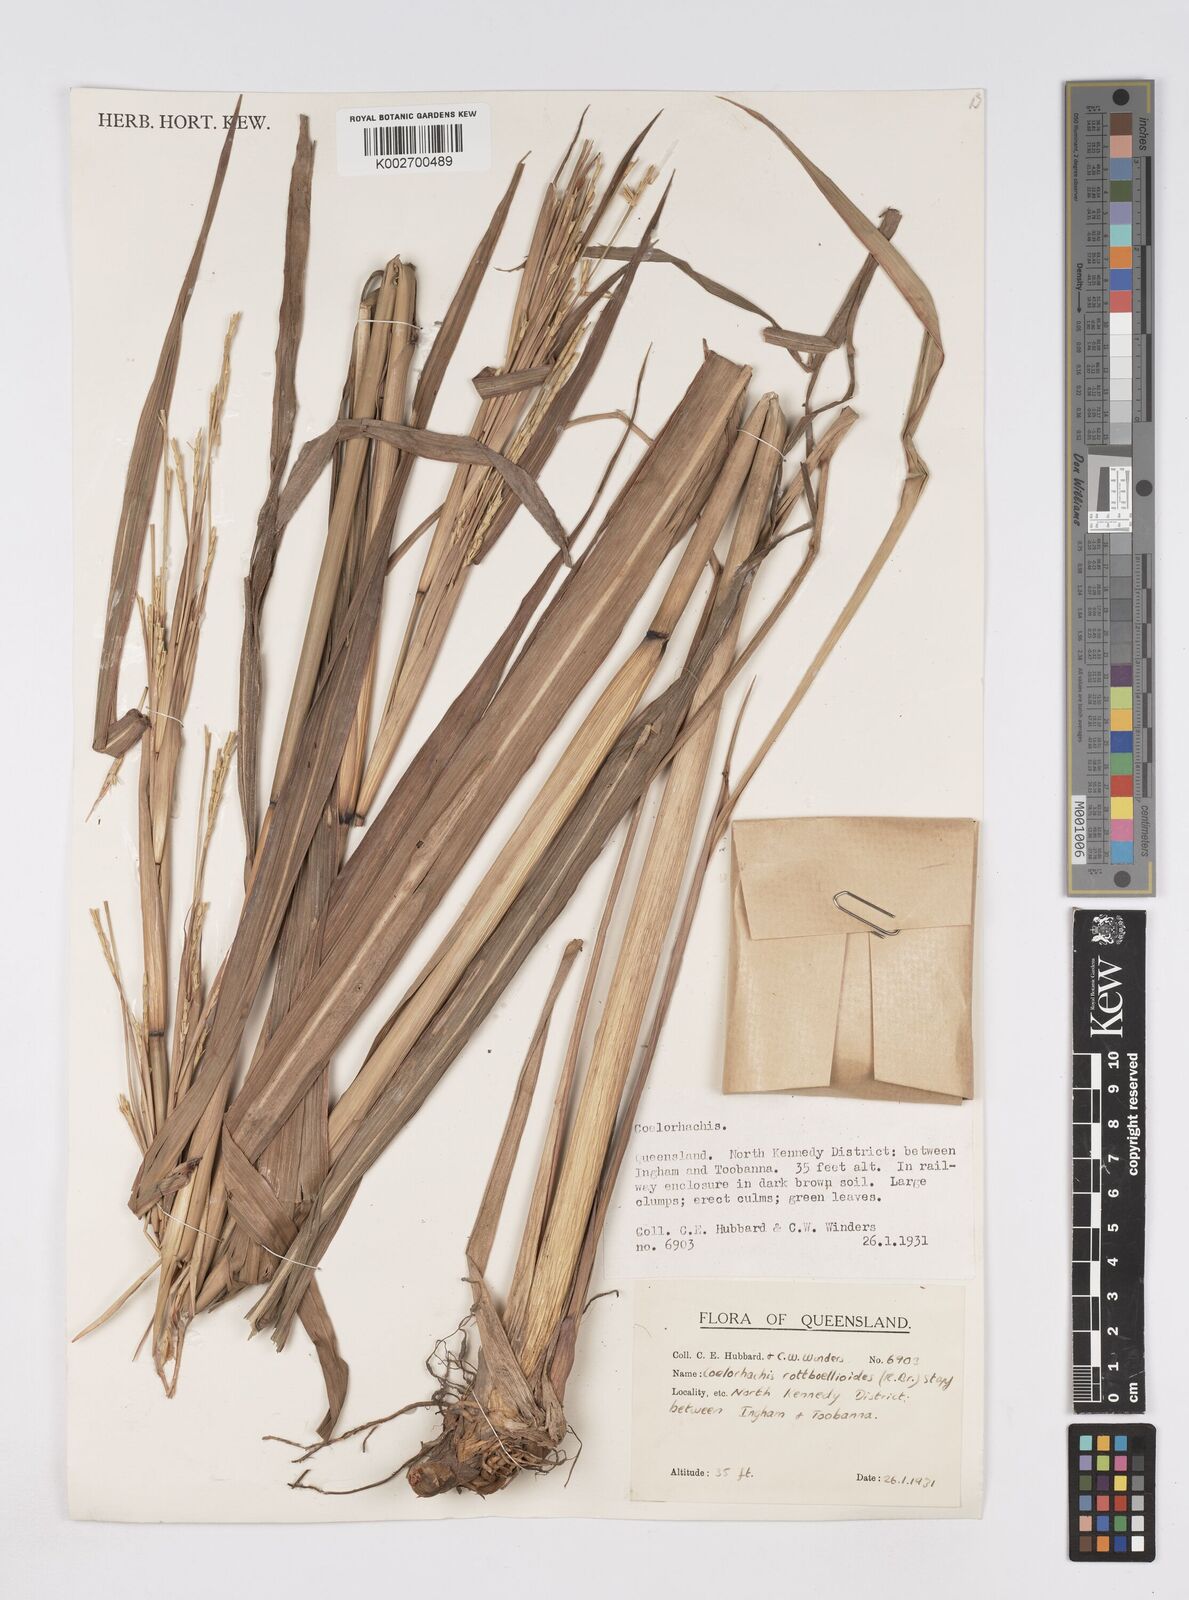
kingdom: Plantae
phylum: Tracheophyta
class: Liliopsida
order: Poales
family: Poaceae
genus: Rottboellia
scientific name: Rottboellia rottboellioides
